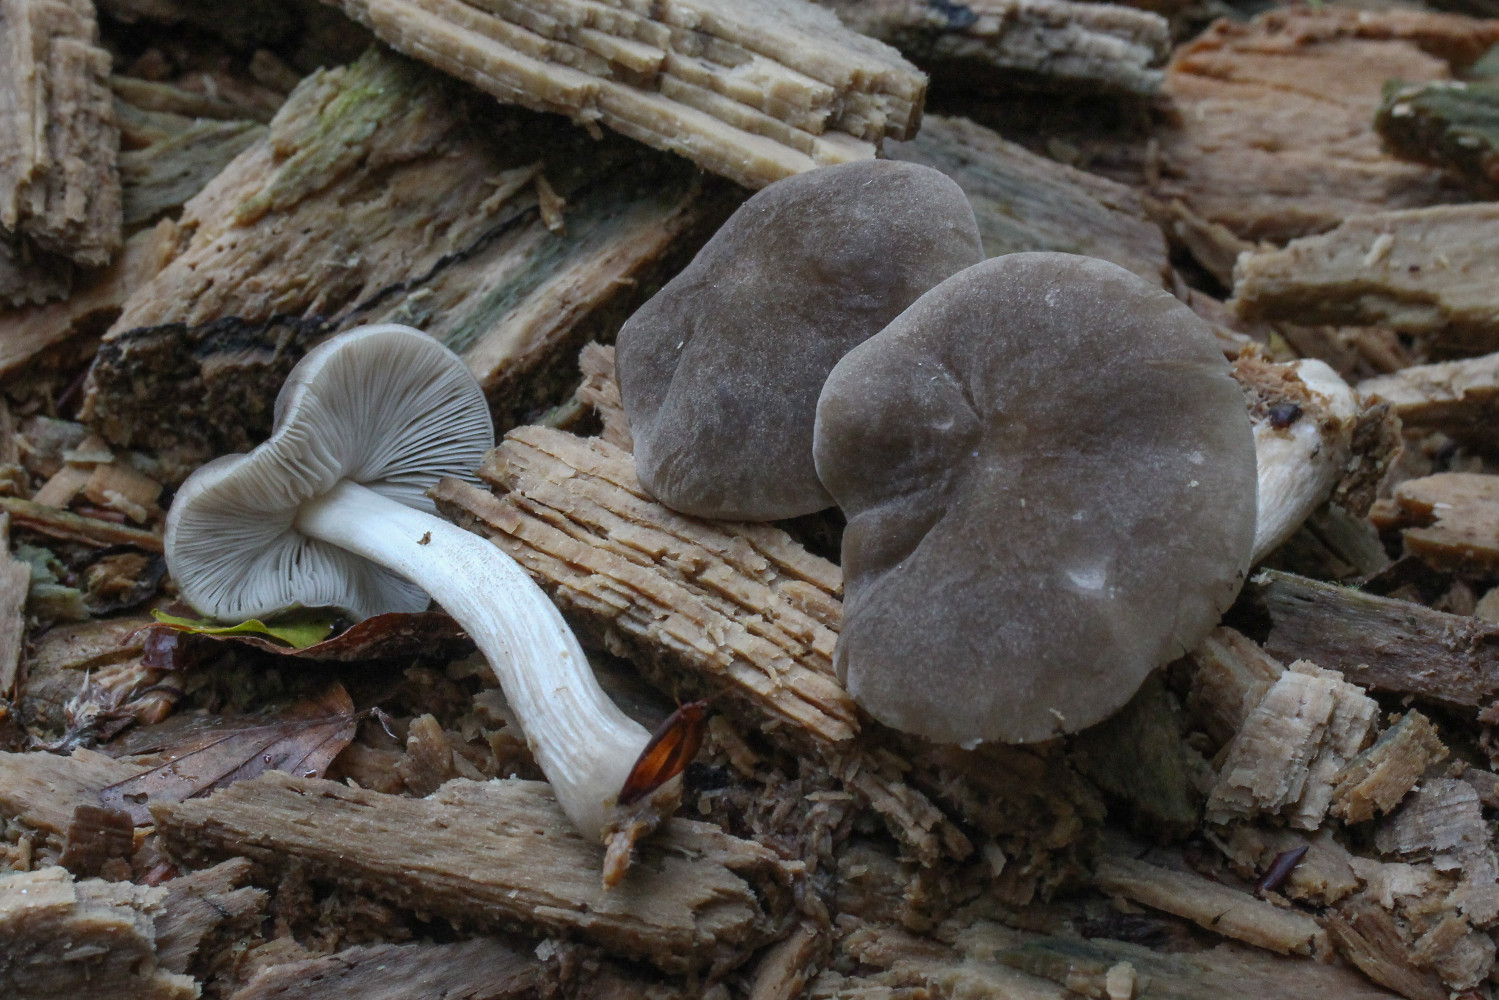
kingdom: Fungi
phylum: Basidiomycota
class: Agaricomycetes
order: Agaricales
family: Pluteaceae
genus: Pluteus
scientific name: Pluteus
